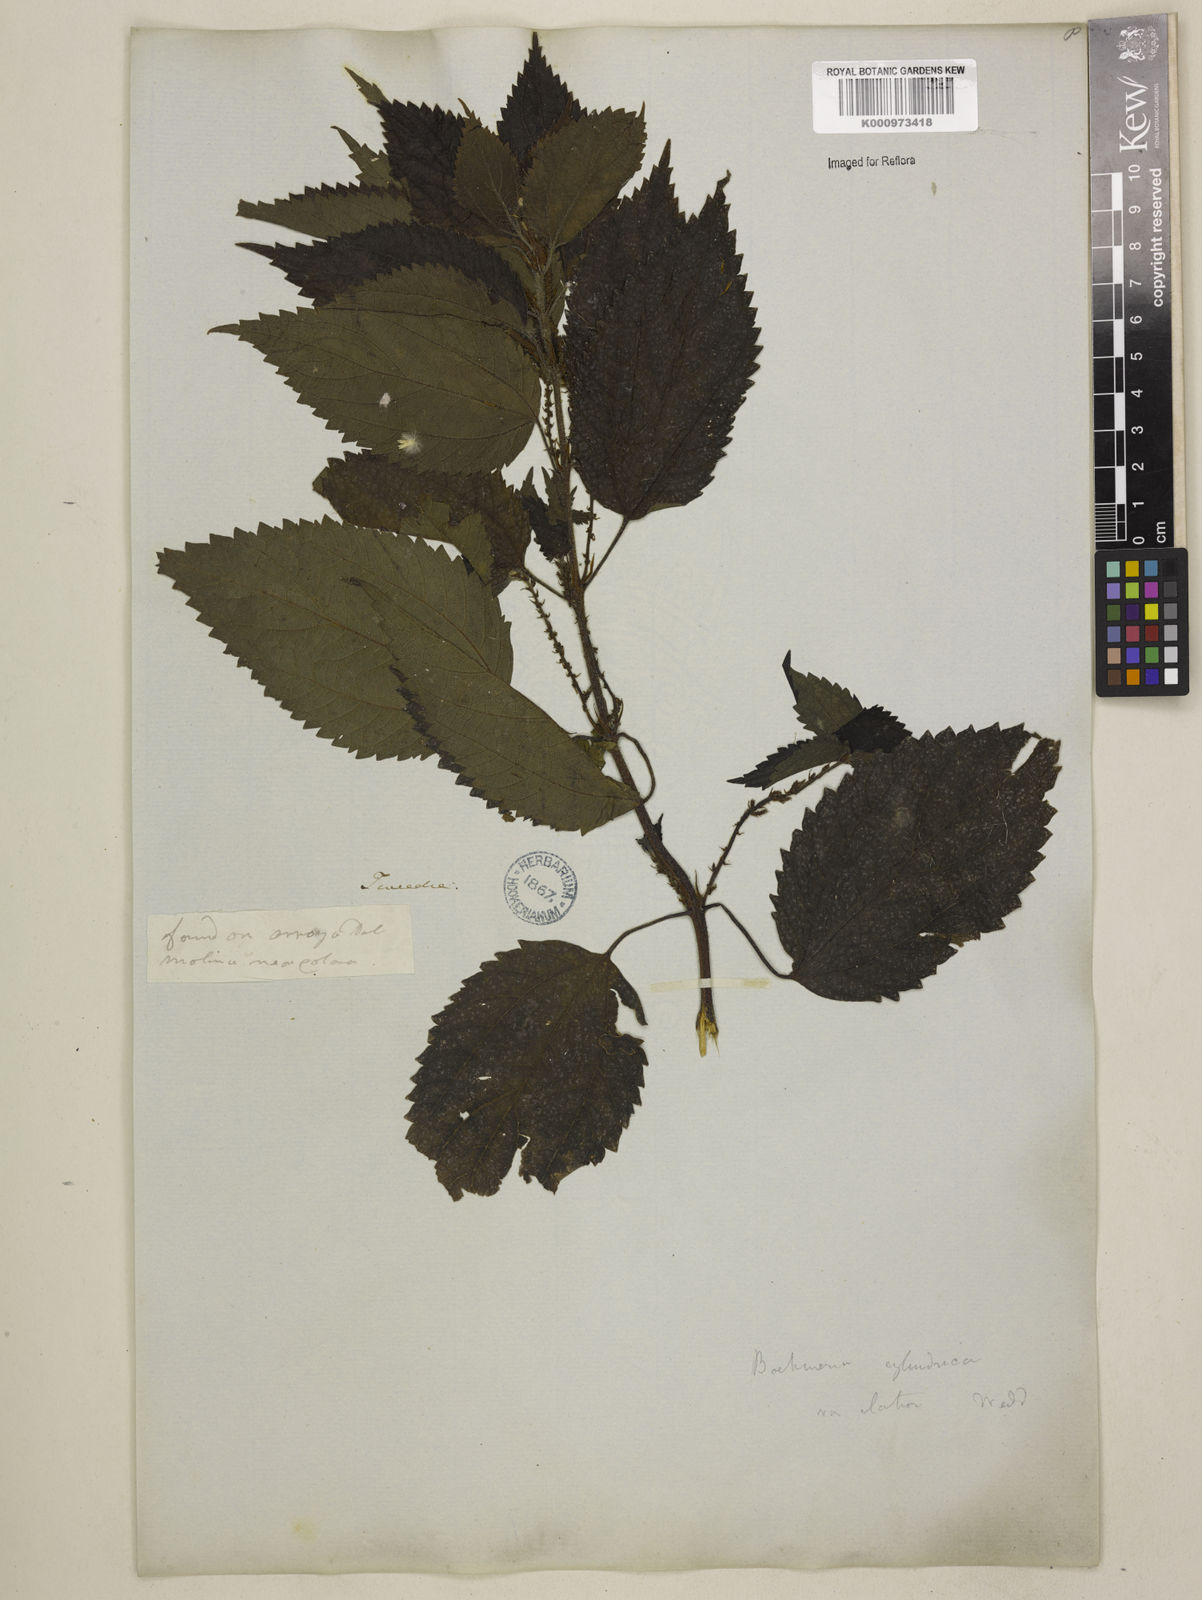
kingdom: Plantae
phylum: Tracheophyta
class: Magnoliopsida
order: Rosales
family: Urticaceae
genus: Boehmeria
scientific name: Boehmeria cylindrica
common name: Bog-hemp
